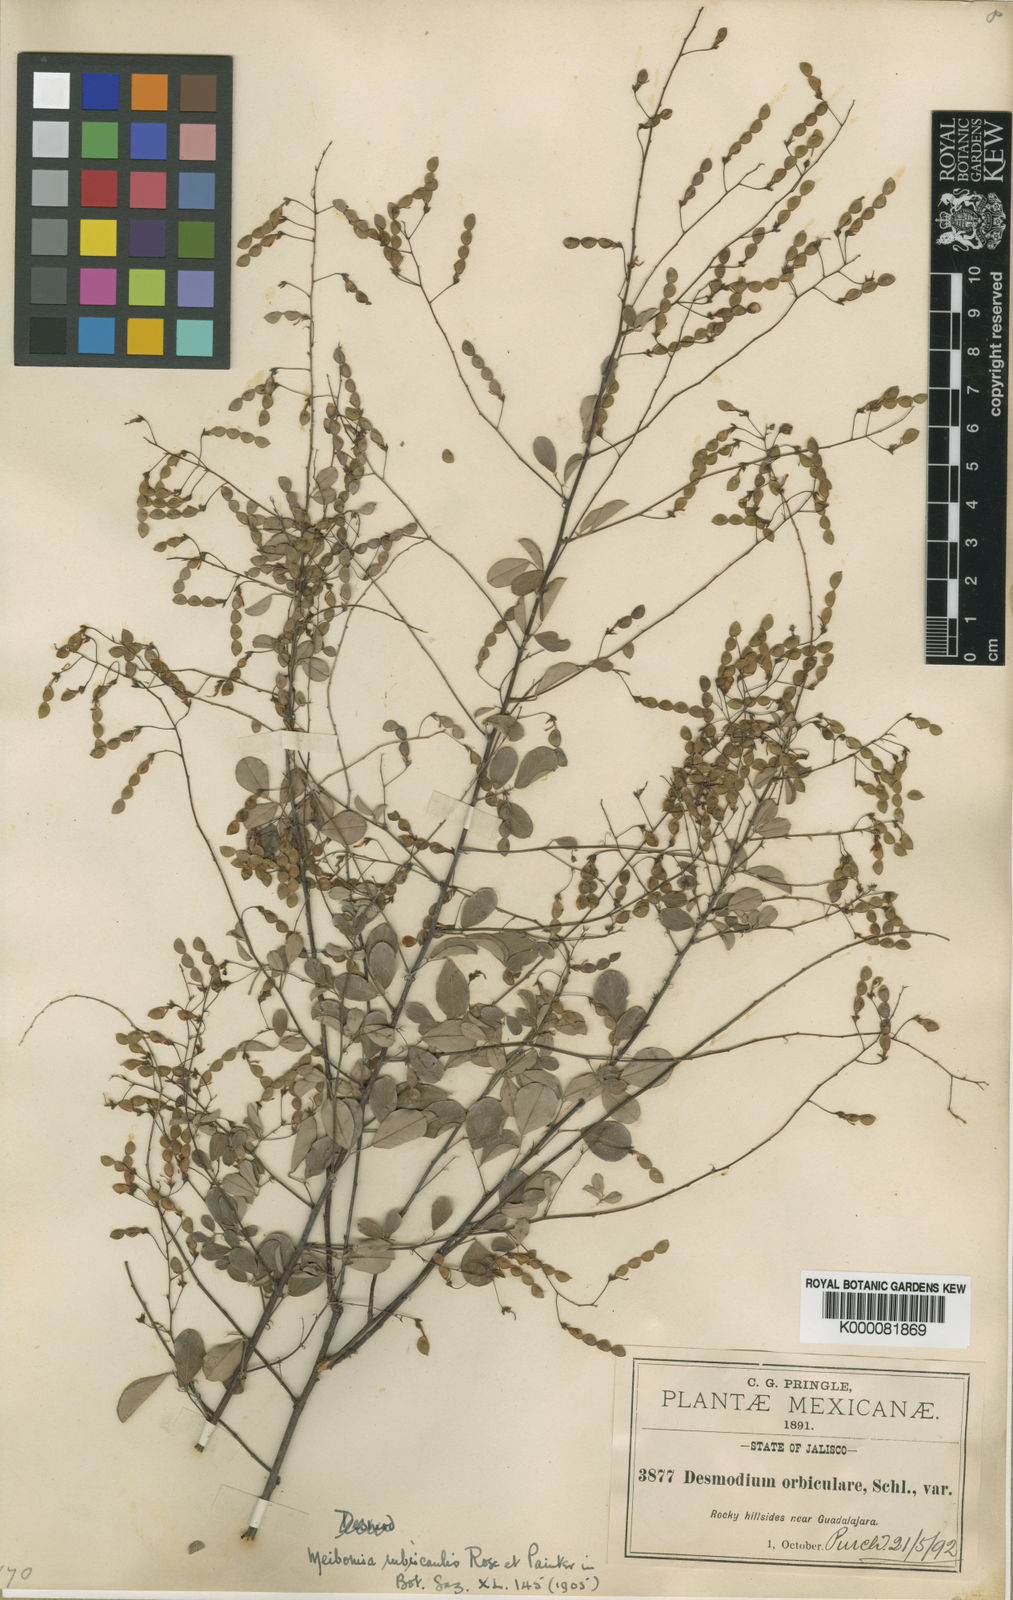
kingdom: Plantae
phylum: Tracheophyta
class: Magnoliopsida
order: Fabales
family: Fabaceae
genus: Desmodium
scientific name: Desmodium
